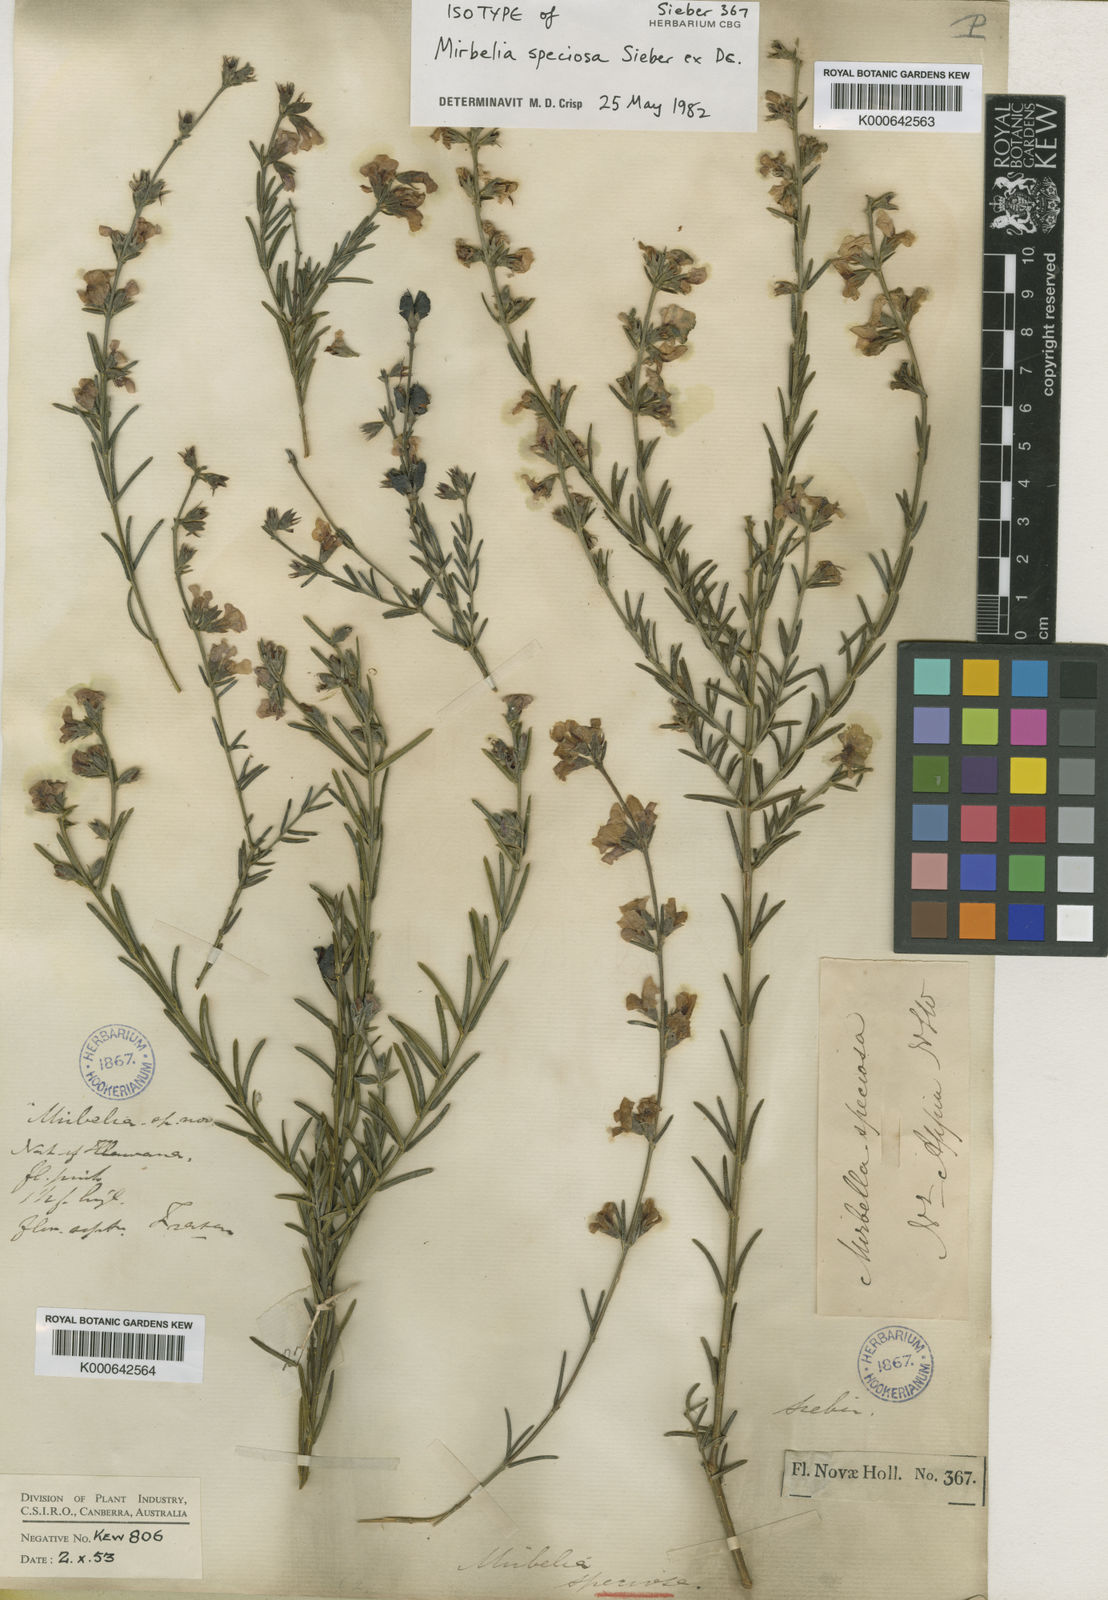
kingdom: Plantae
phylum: Tracheophyta
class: Magnoliopsida
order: Fabales
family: Fabaceae
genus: Mirbelia
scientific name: Mirbelia speciosa
